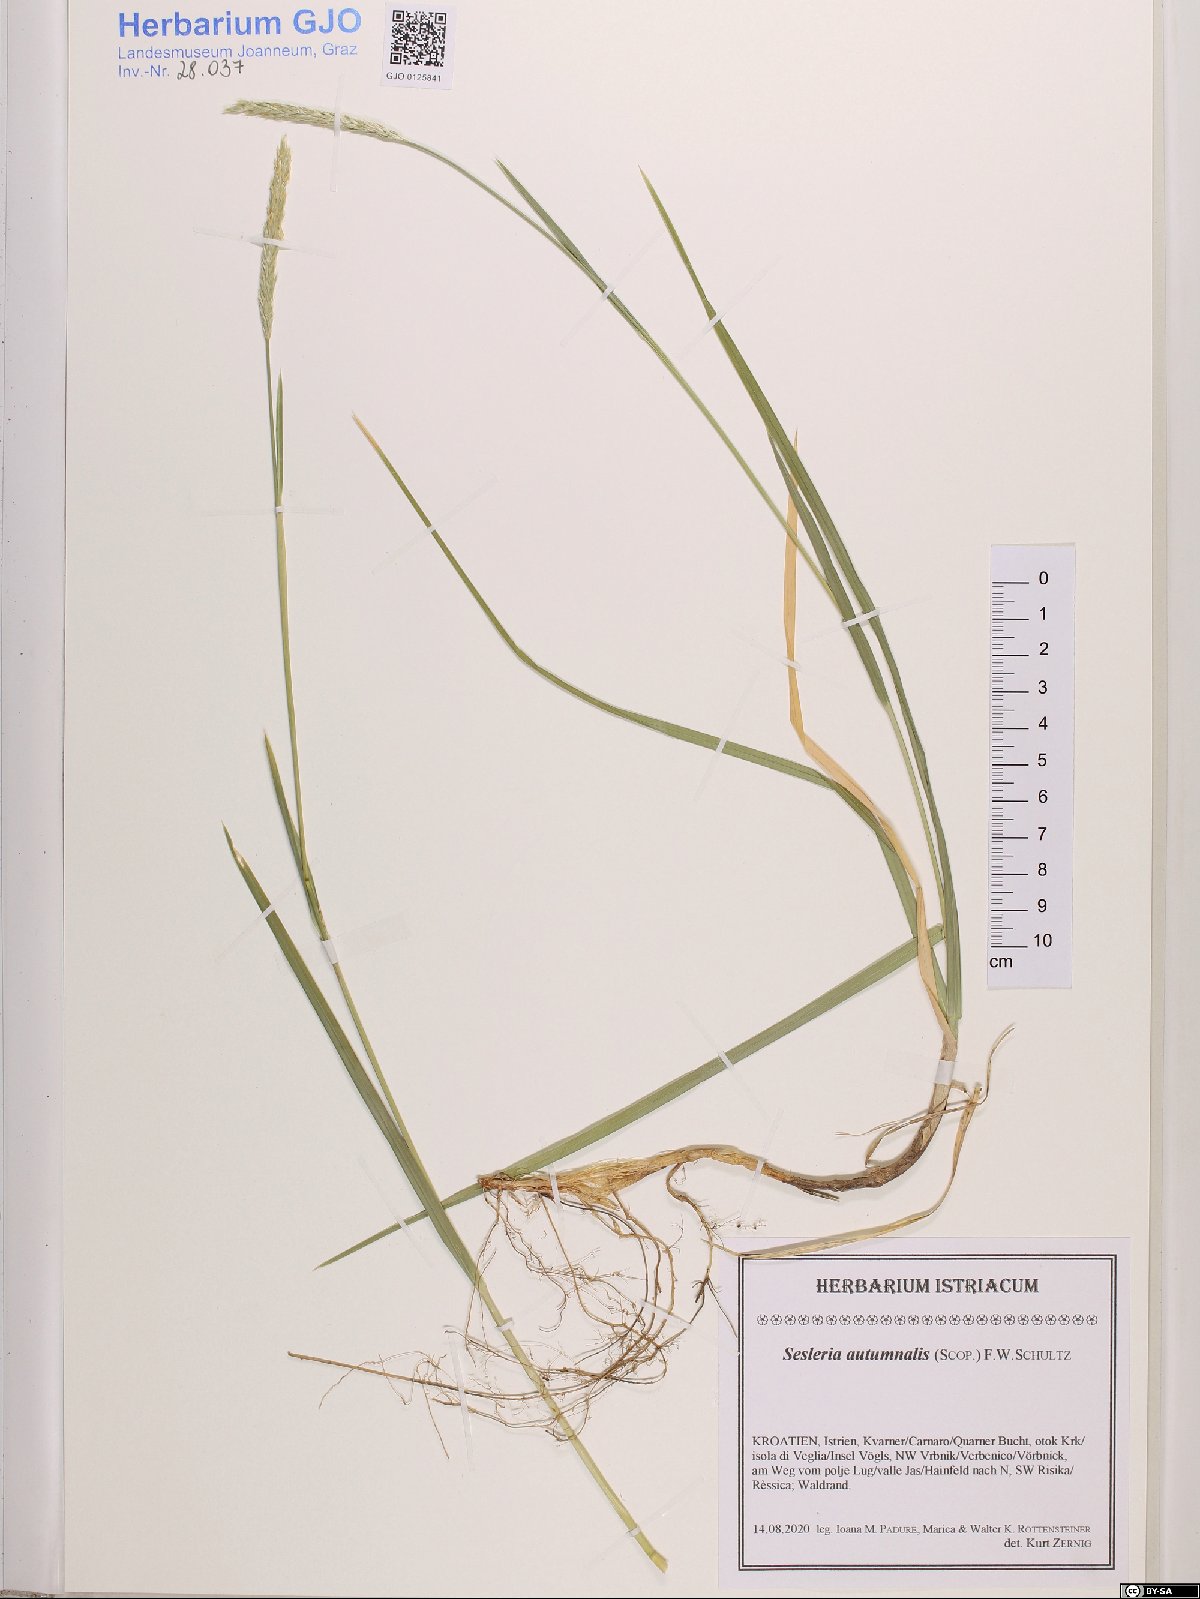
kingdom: Plantae
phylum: Tracheophyta
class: Liliopsida
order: Poales
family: Poaceae
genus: Sesleria
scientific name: Sesleria autumnalis
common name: Autumn moor grass
